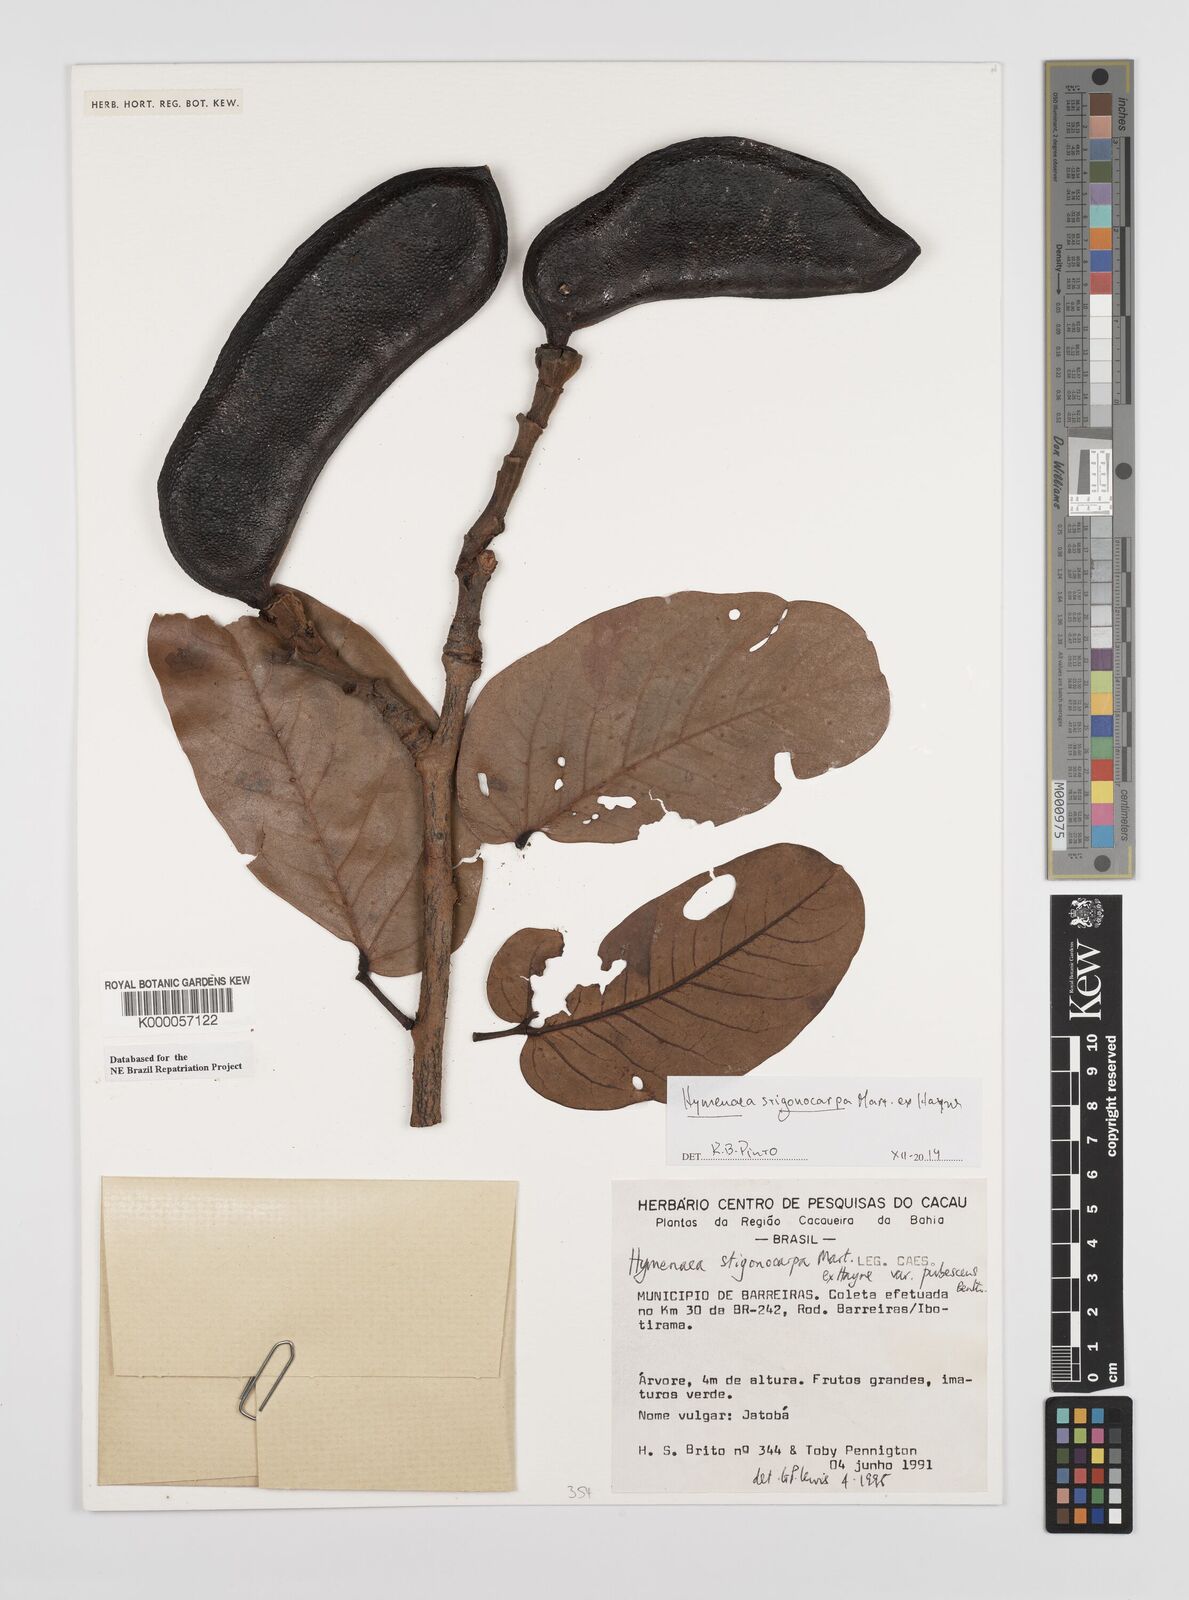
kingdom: Plantae
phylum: Tracheophyta
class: Magnoliopsida
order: Fabales
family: Fabaceae
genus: Hymenaea
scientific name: Hymenaea stigonocarpa
